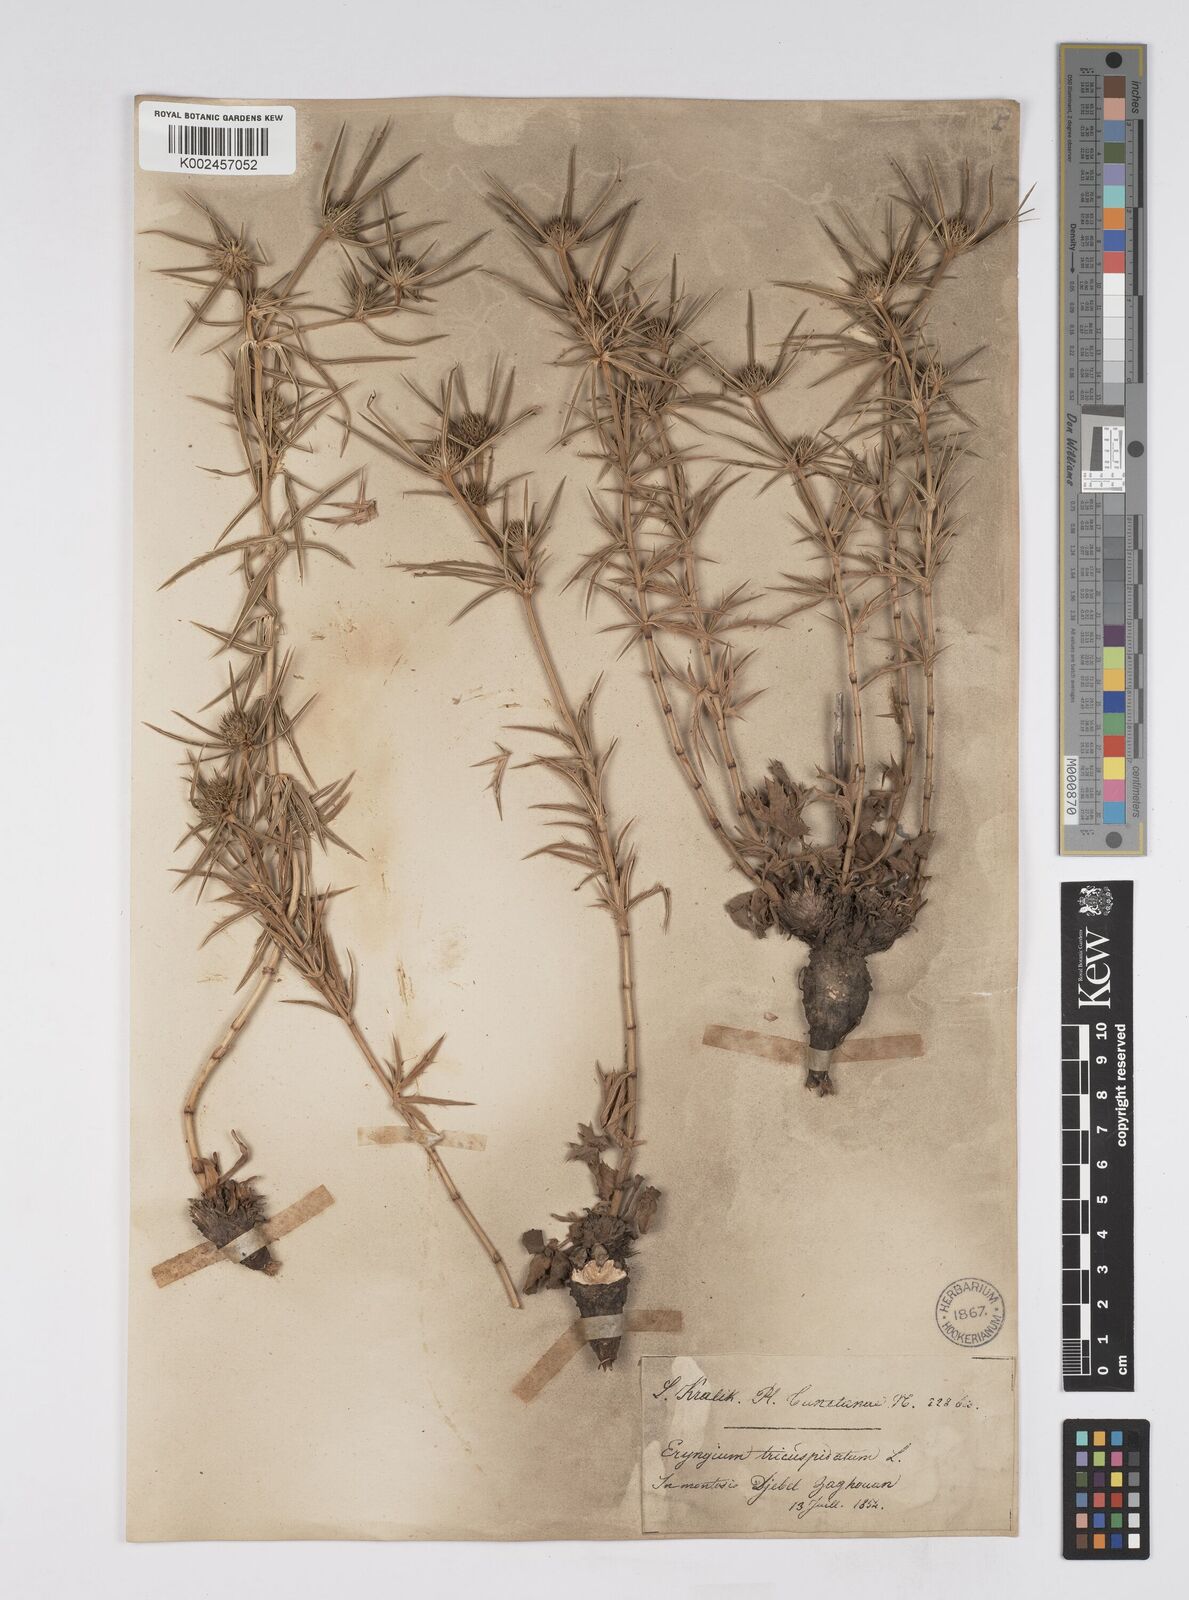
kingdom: Plantae
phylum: Tracheophyta
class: Magnoliopsida
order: Apiales
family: Apiaceae
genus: Eryngium
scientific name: Eryngium tricuspidatum
